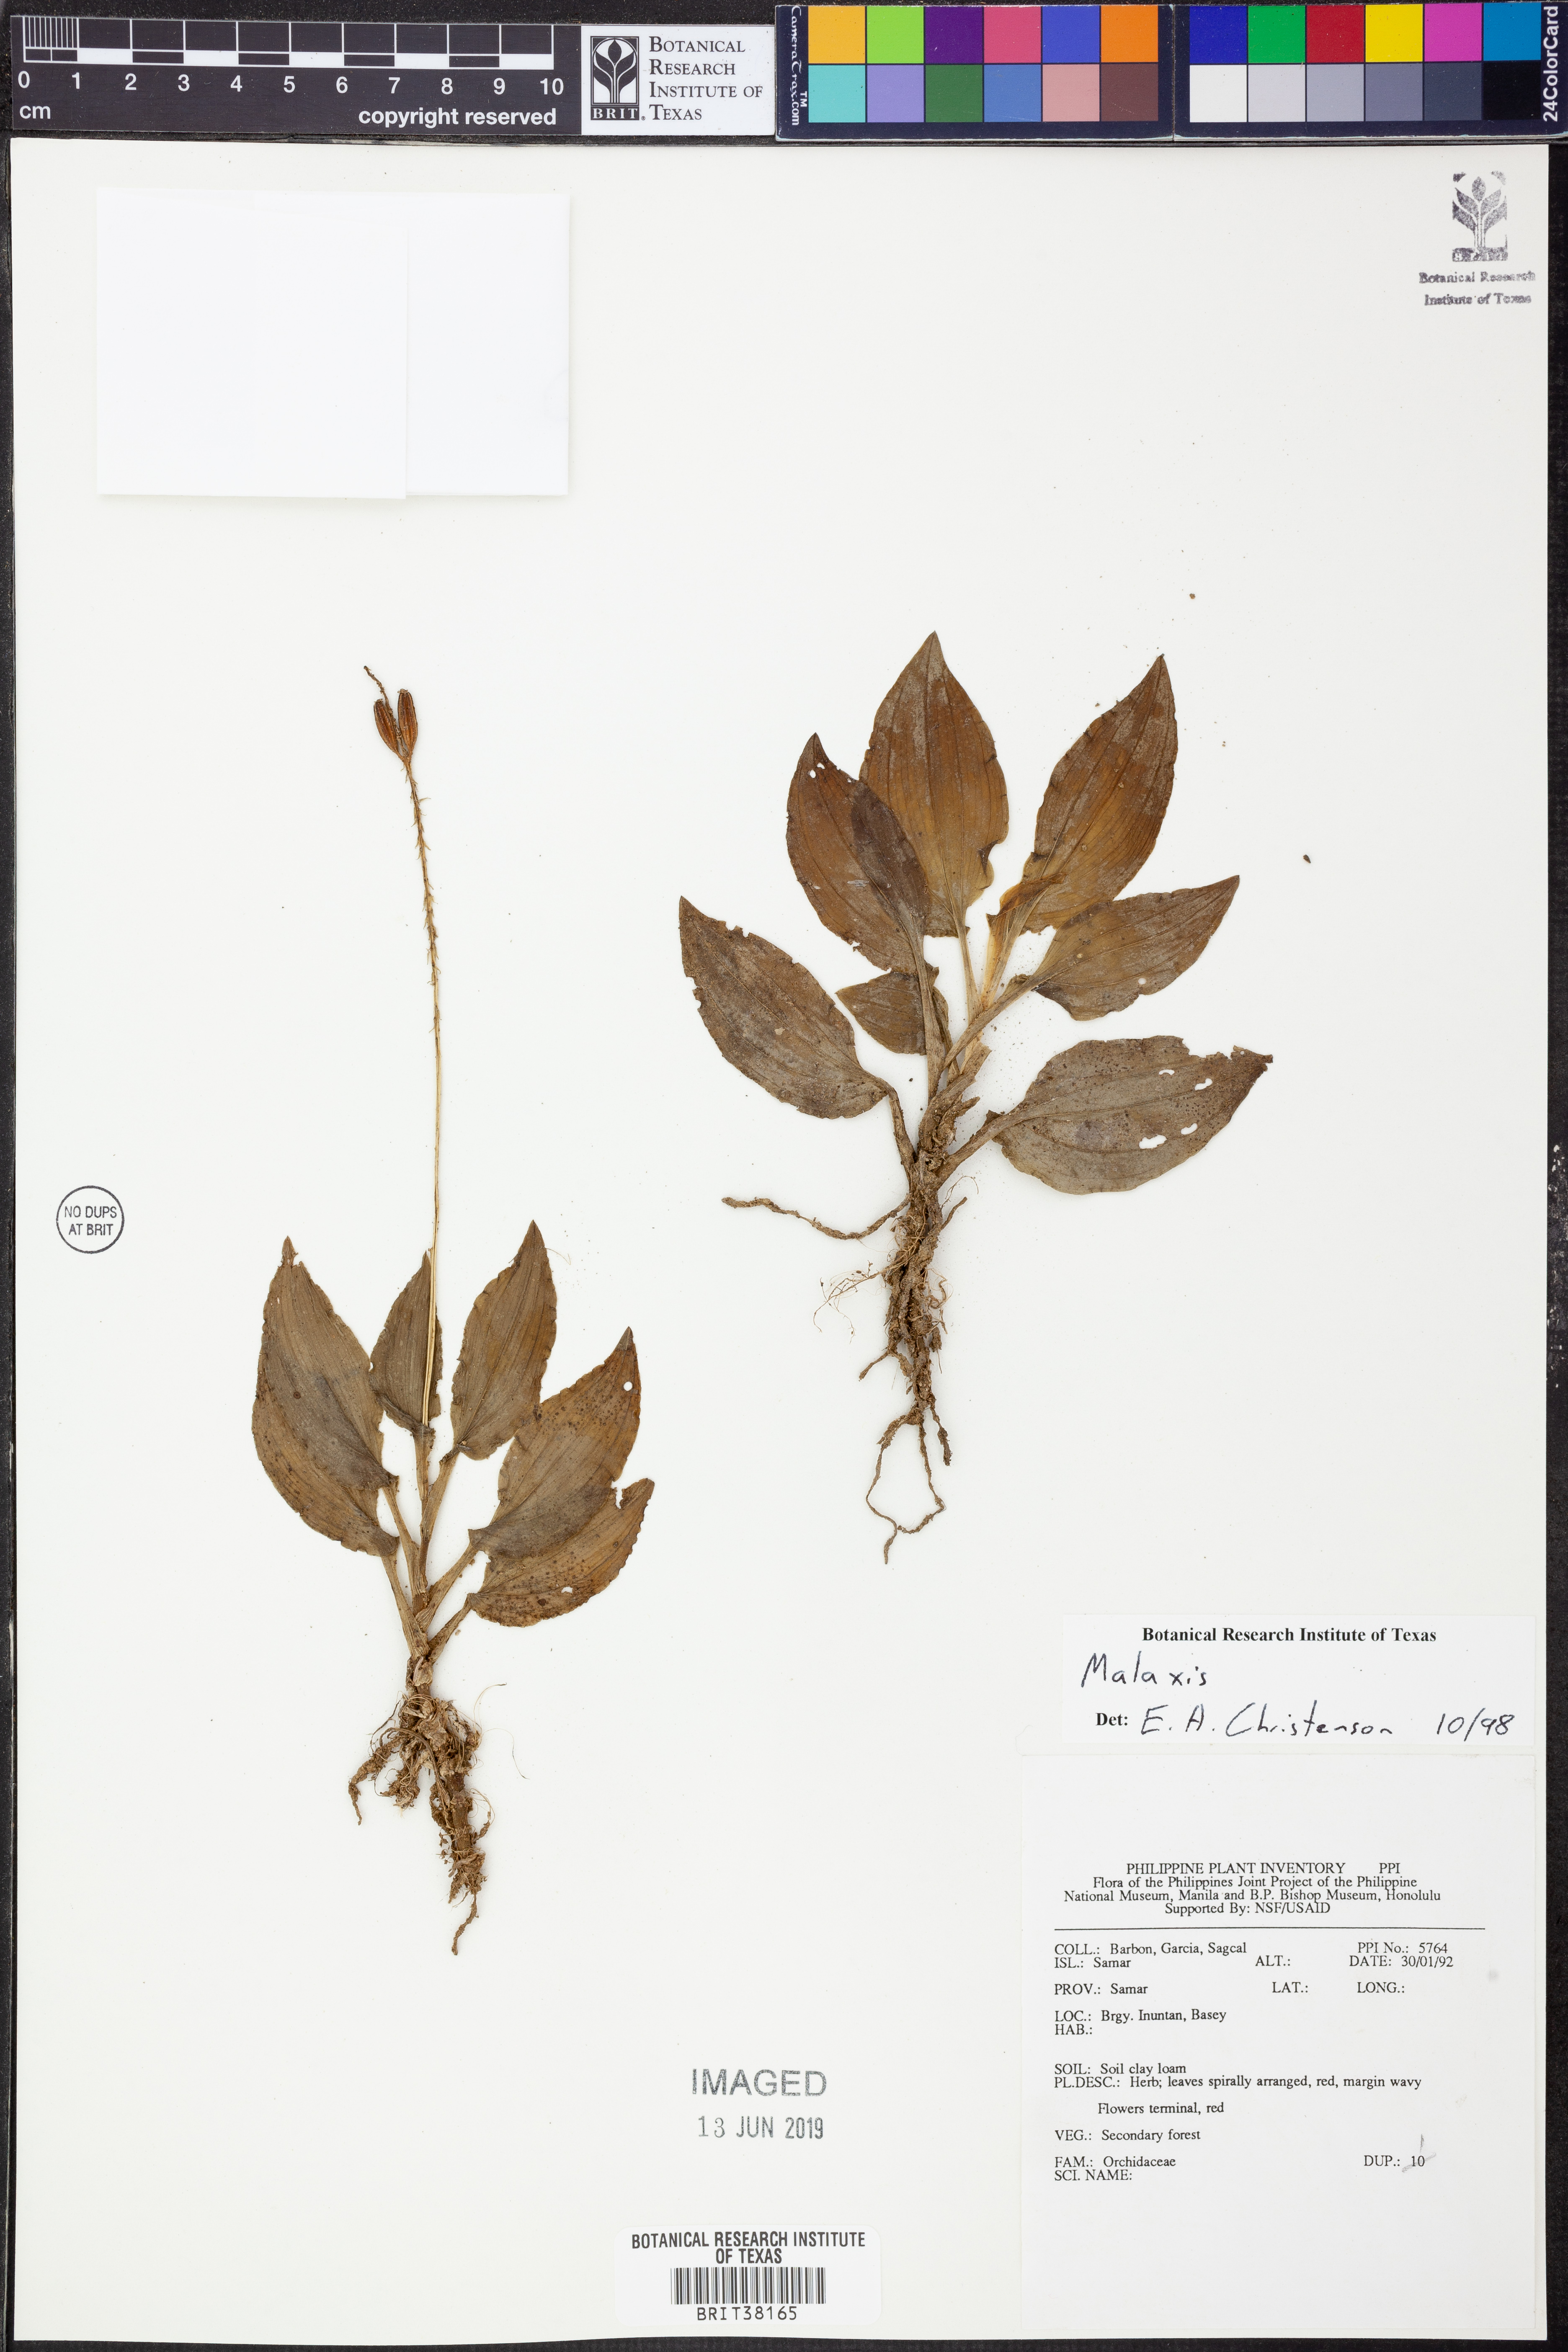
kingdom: Plantae
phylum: Tracheophyta
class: Liliopsida
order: Asparagales
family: Orchidaceae
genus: Malaxis
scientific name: Malaxis
